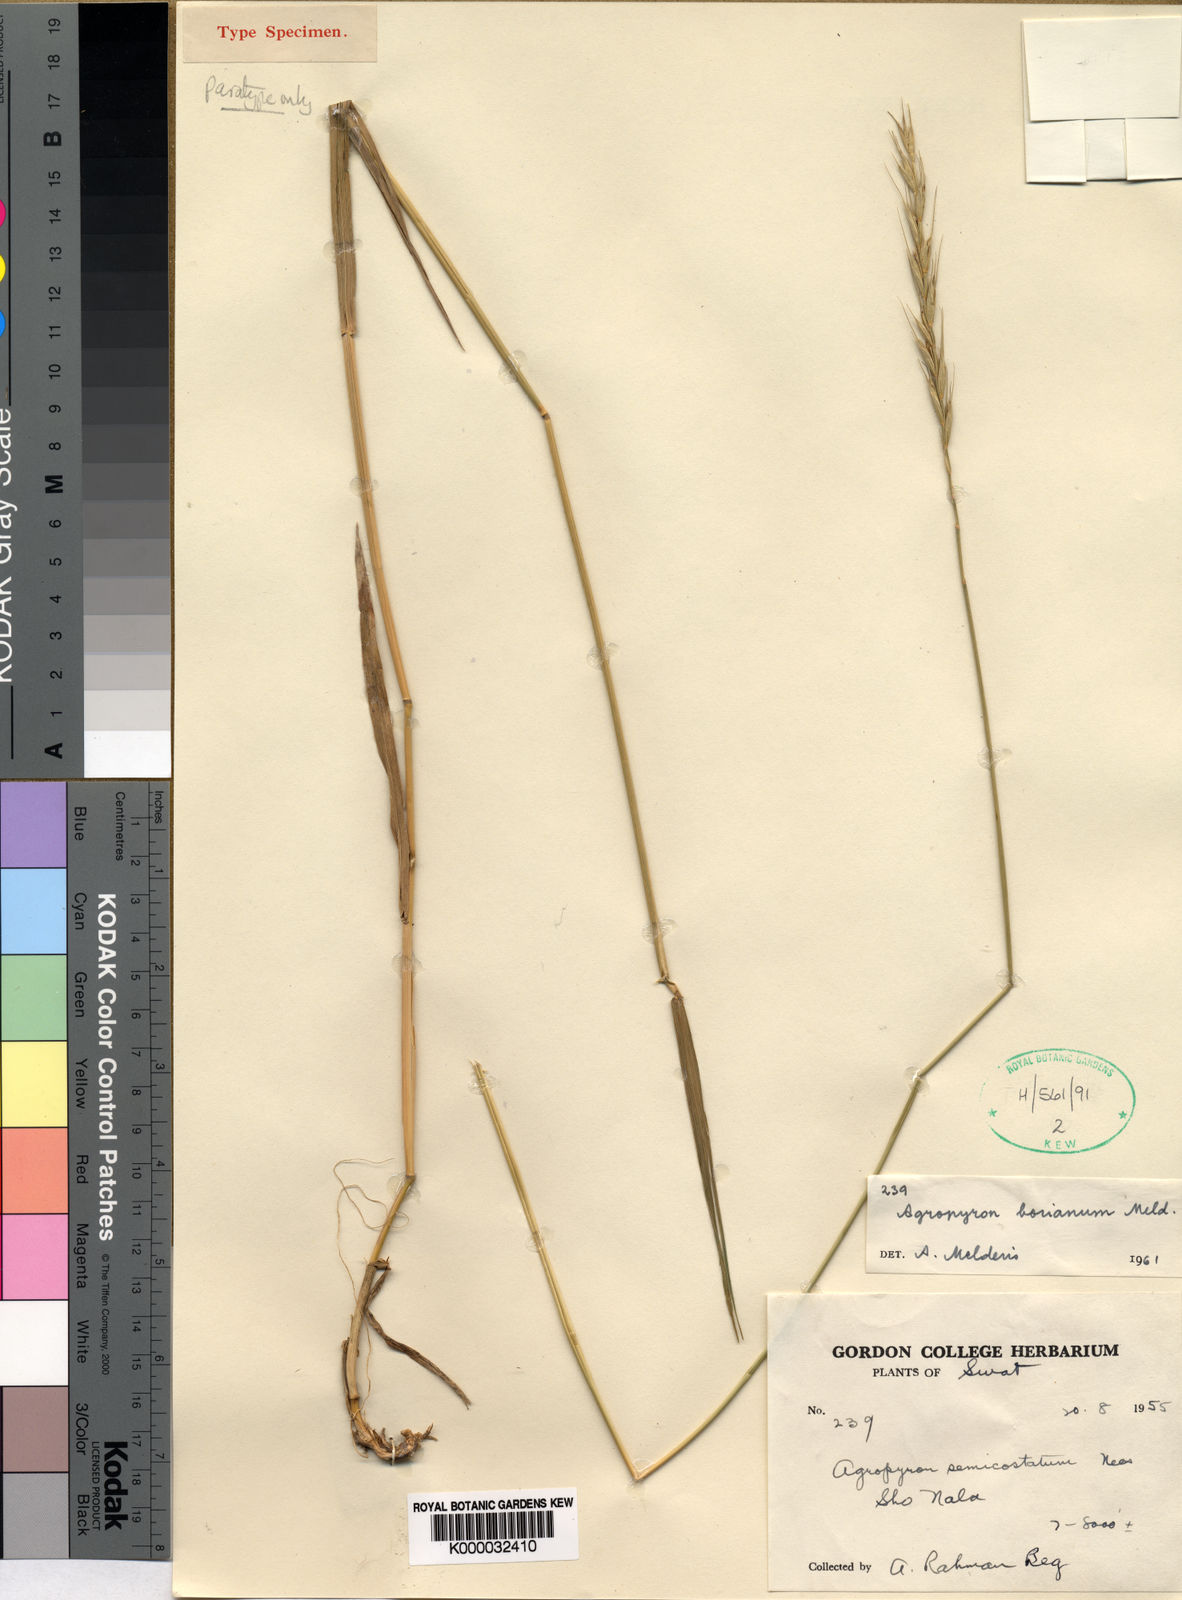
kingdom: Plantae
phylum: Tracheophyta
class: Liliopsida
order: Poales
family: Poaceae
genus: Elymus
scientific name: Elymus borianus
